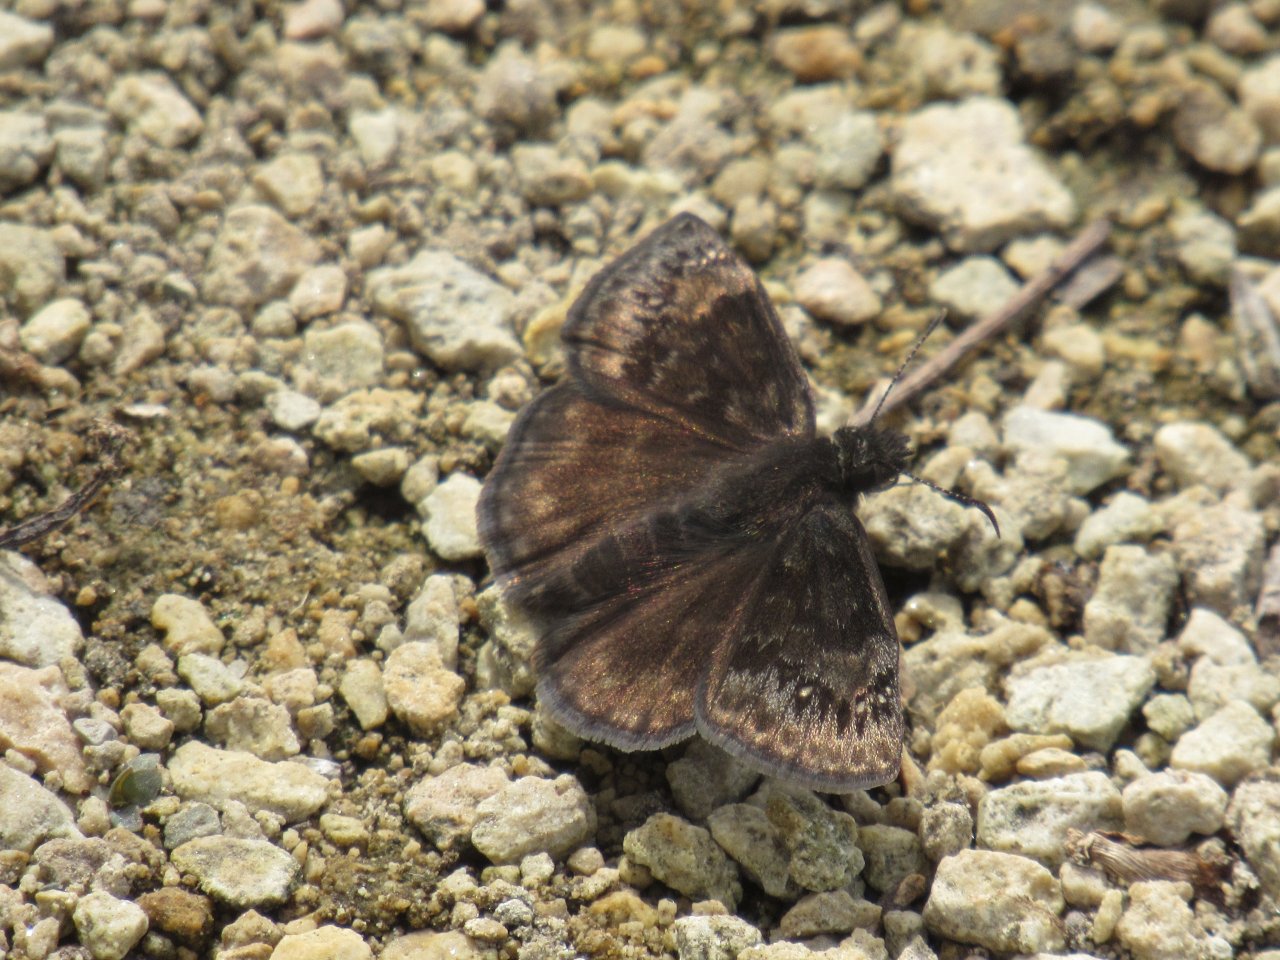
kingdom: Animalia
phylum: Arthropoda
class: Insecta
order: Lepidoptera
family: Hesperiidae
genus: Gesta
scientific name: Gesta
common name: Wild Indigo Duskywing
